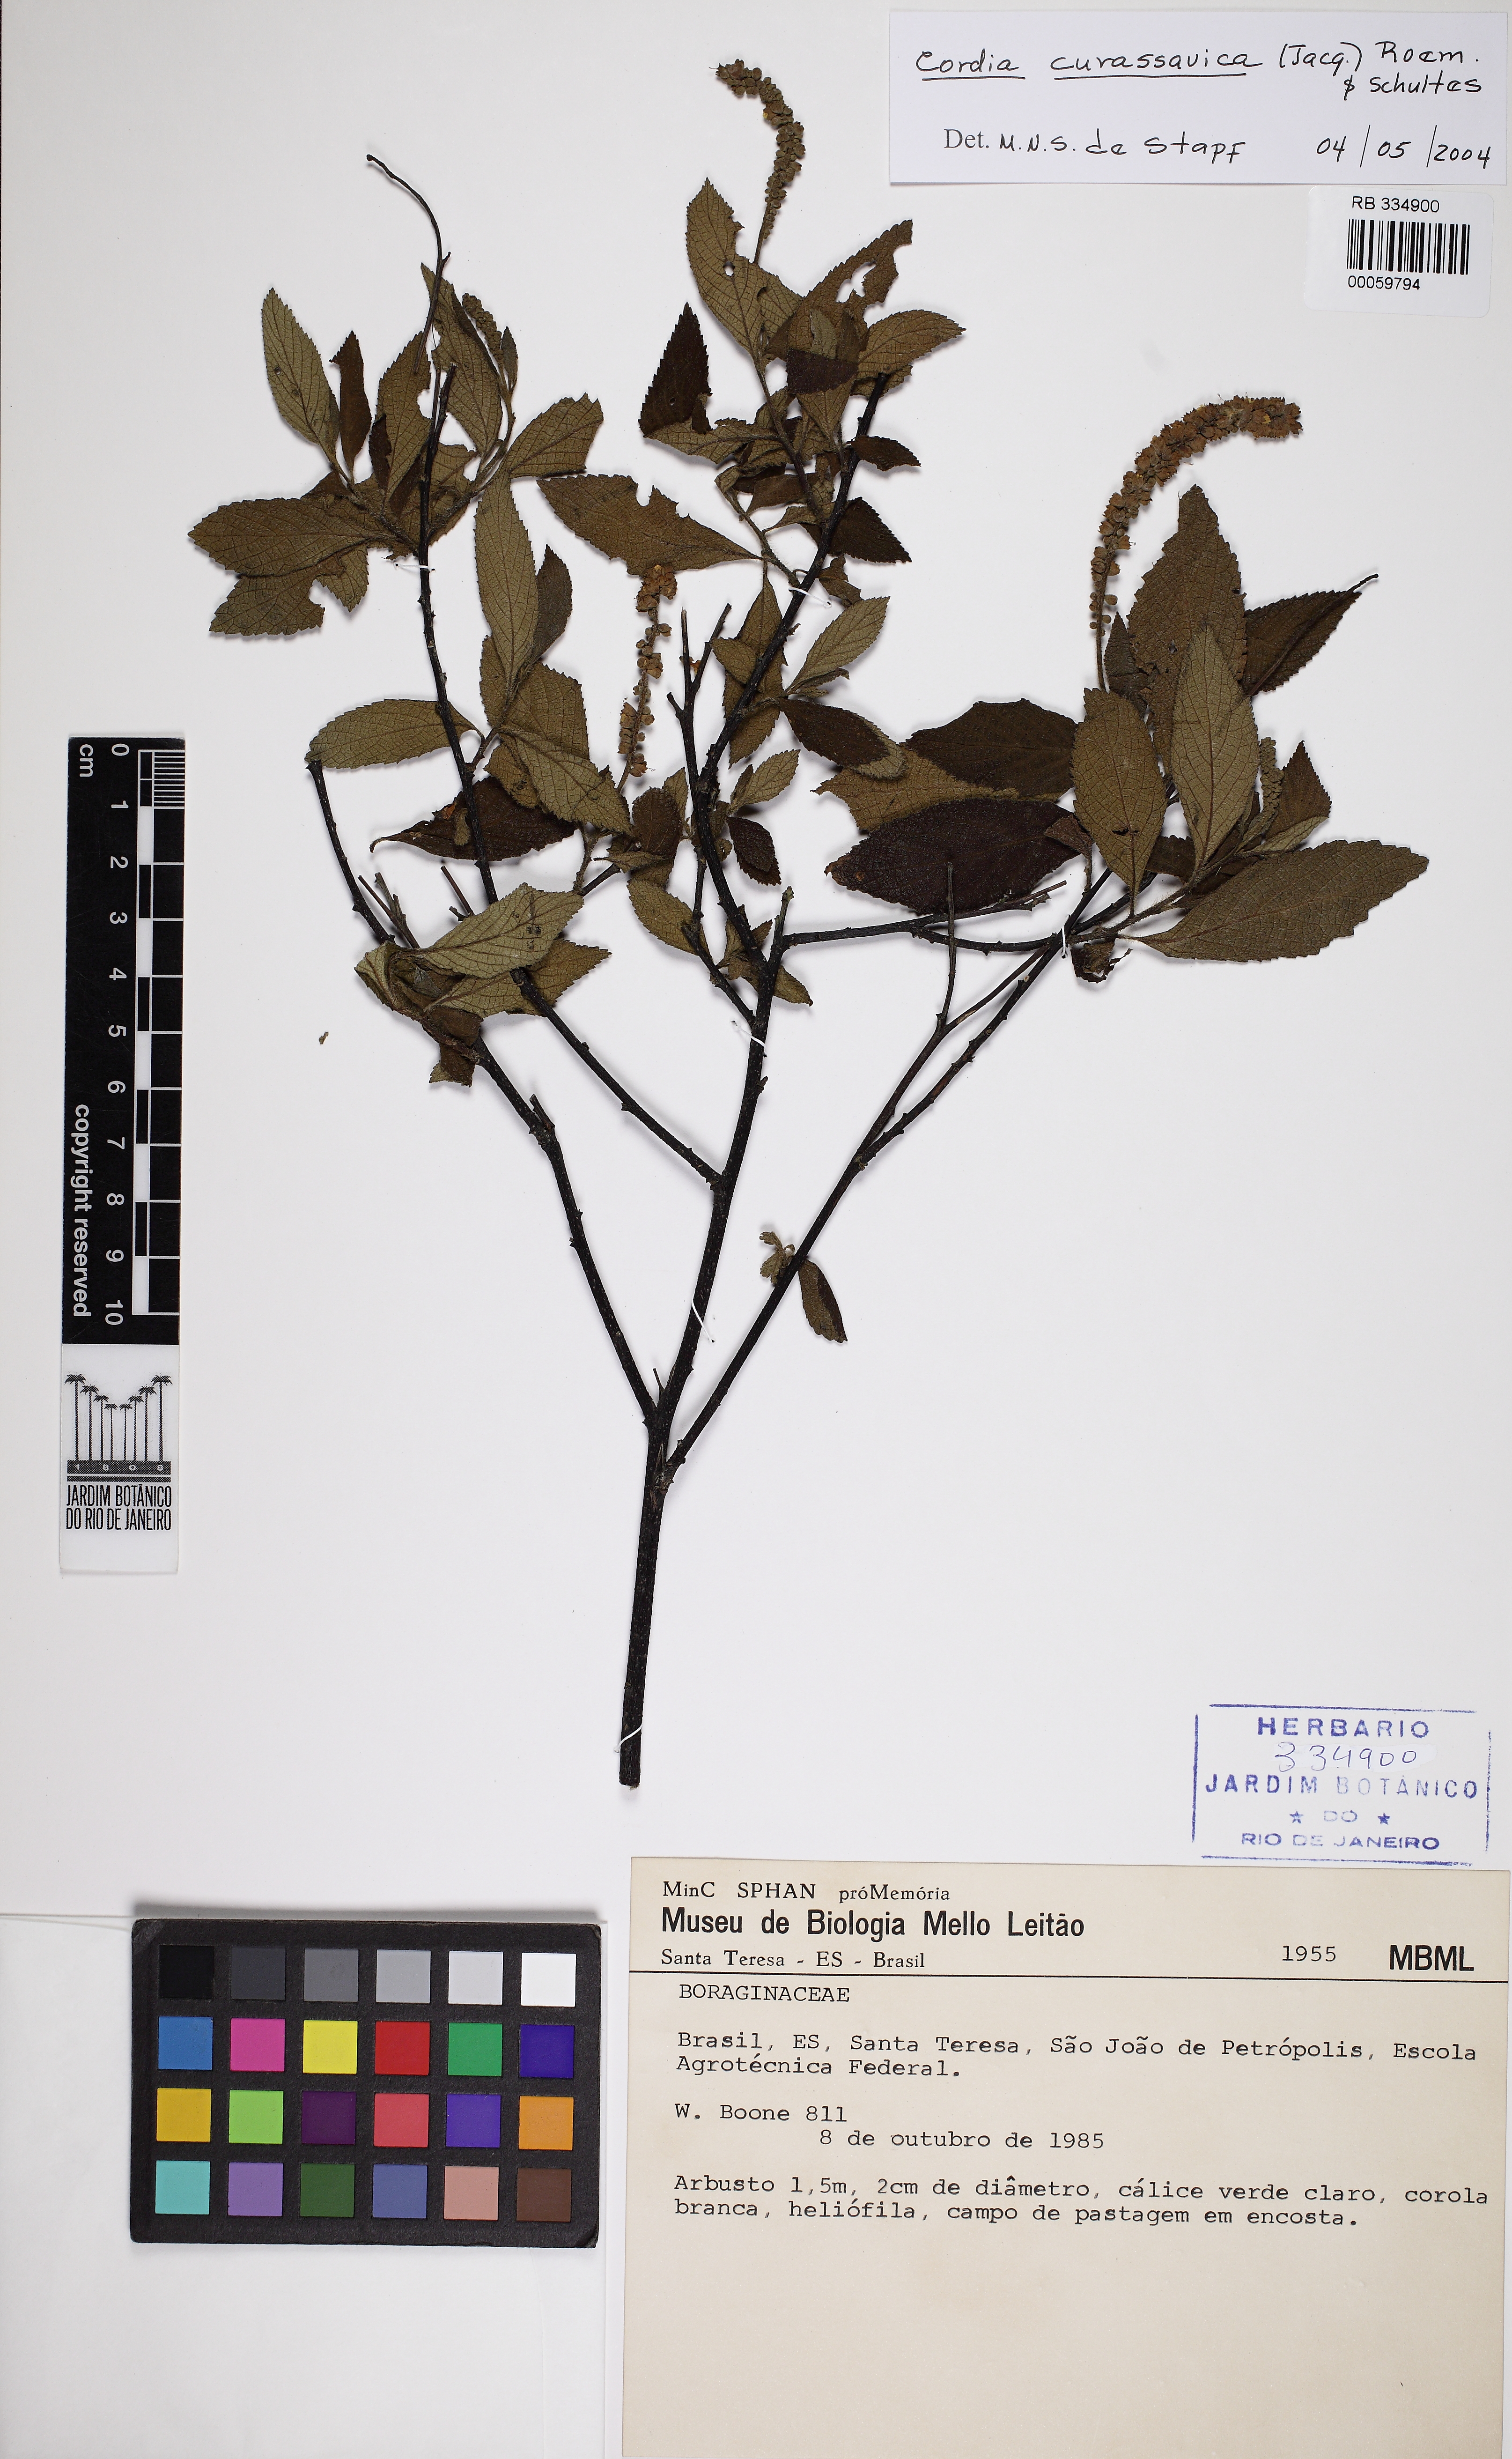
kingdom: Plantae
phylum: Tracheophyta
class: Magnoliopsida
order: Boraginales
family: Cordiaceae
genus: Varronia
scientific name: Varronia curassavica
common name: Black sage
